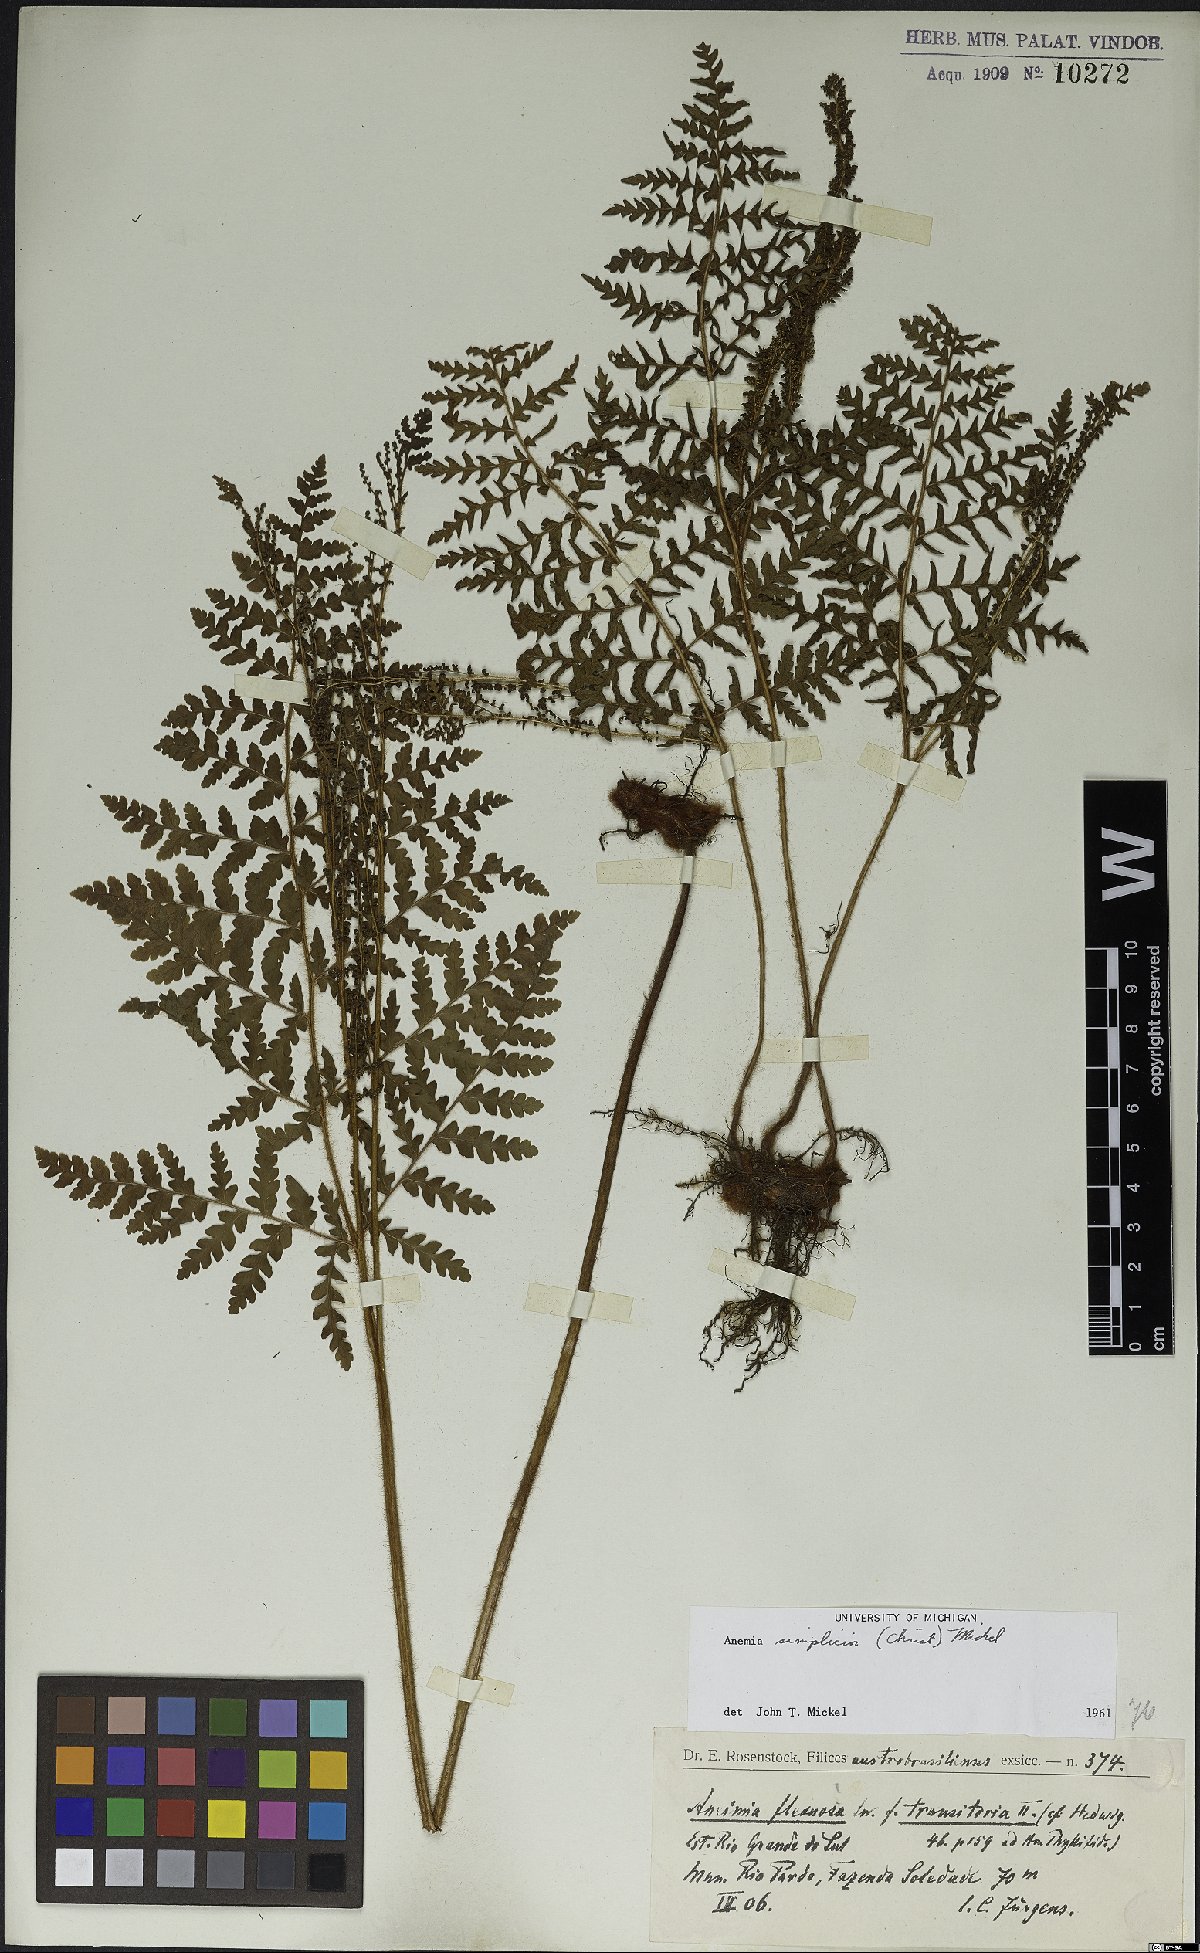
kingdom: Plantae
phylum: Tracheophyta
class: Polypodiopsida
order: Schizaeales
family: Anemiaceae
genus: Anemia
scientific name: Anemia simplicior
